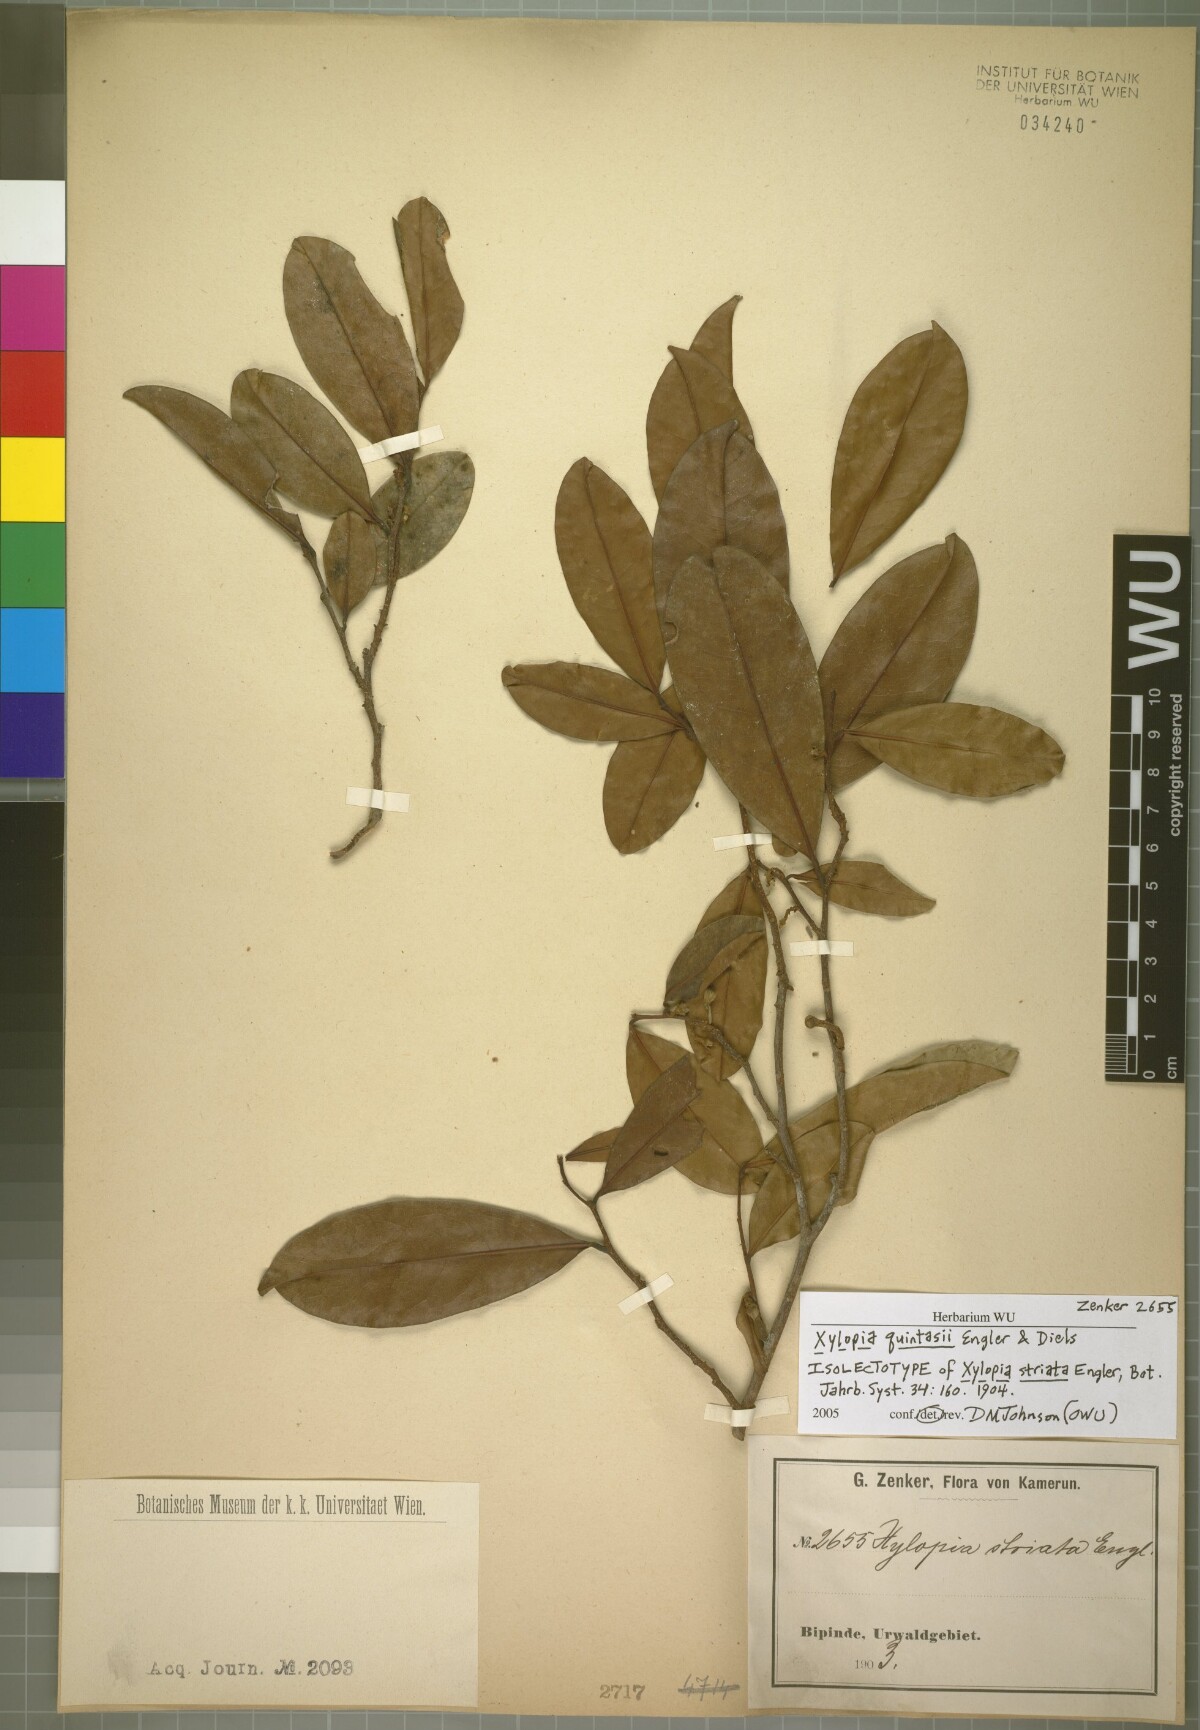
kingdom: Plantae
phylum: Tracheophyta
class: Magnoliopsida
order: Magnoliales
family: Annonaceae
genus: Xylopia
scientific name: Xylopia quintasii
